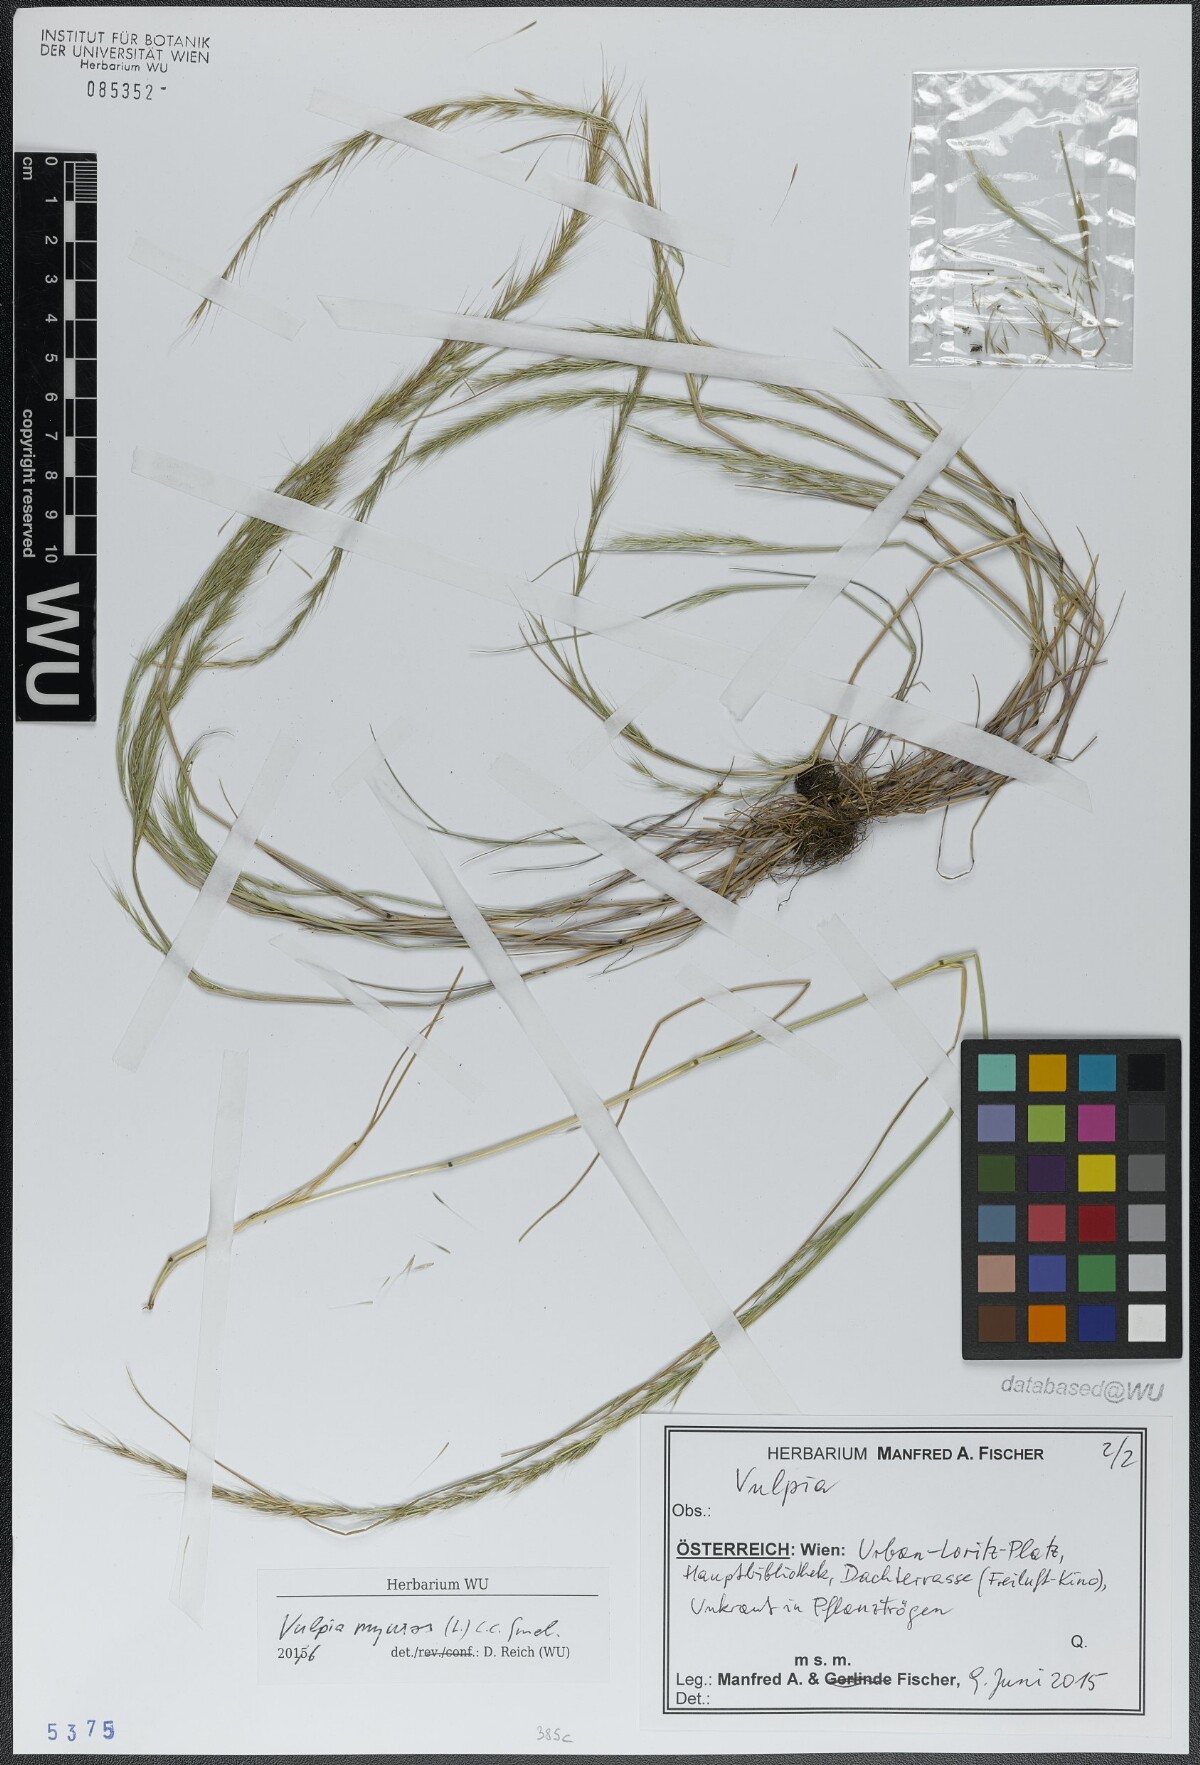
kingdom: Plantae
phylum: Tracheophyta
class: Liliopsida
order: Poales
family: Poaceae
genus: Festuca
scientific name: Festuca myuros
